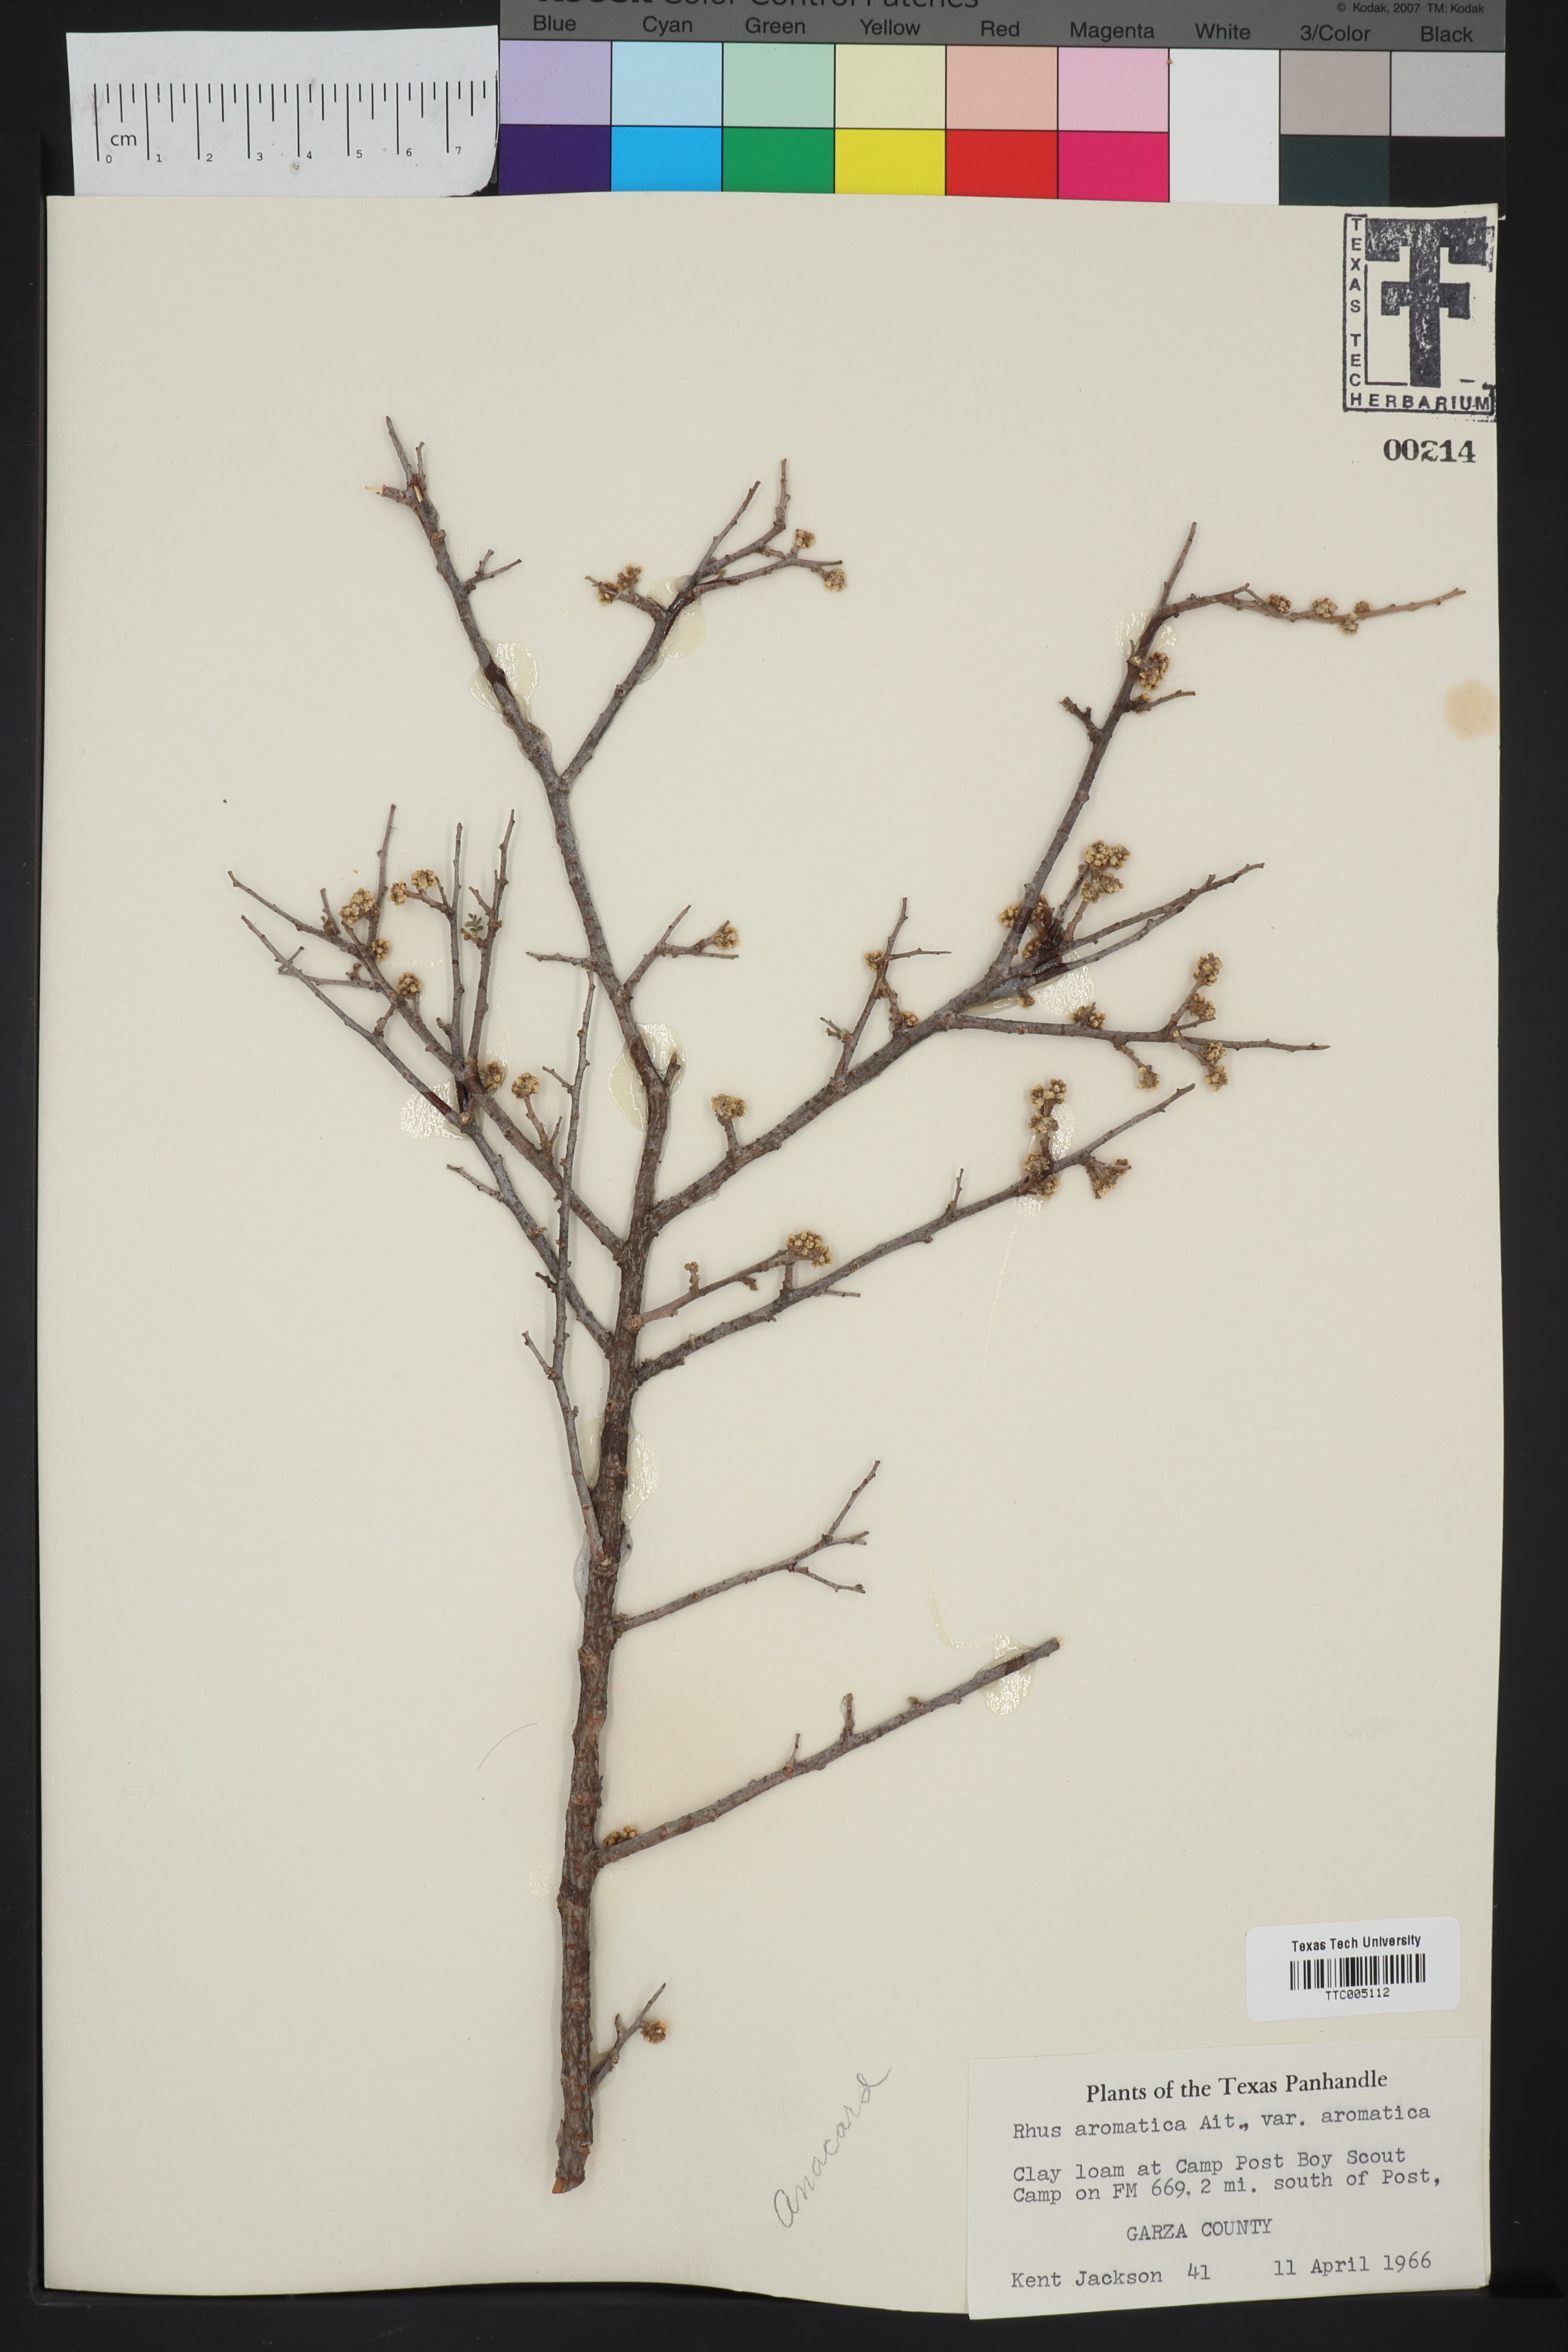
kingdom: Plantae
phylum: Tracheophyta
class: Magnoliopsida
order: Sapindales
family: Anacardiaceae
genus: Rhus
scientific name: Rhus aromatica
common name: Aromatic sumac
